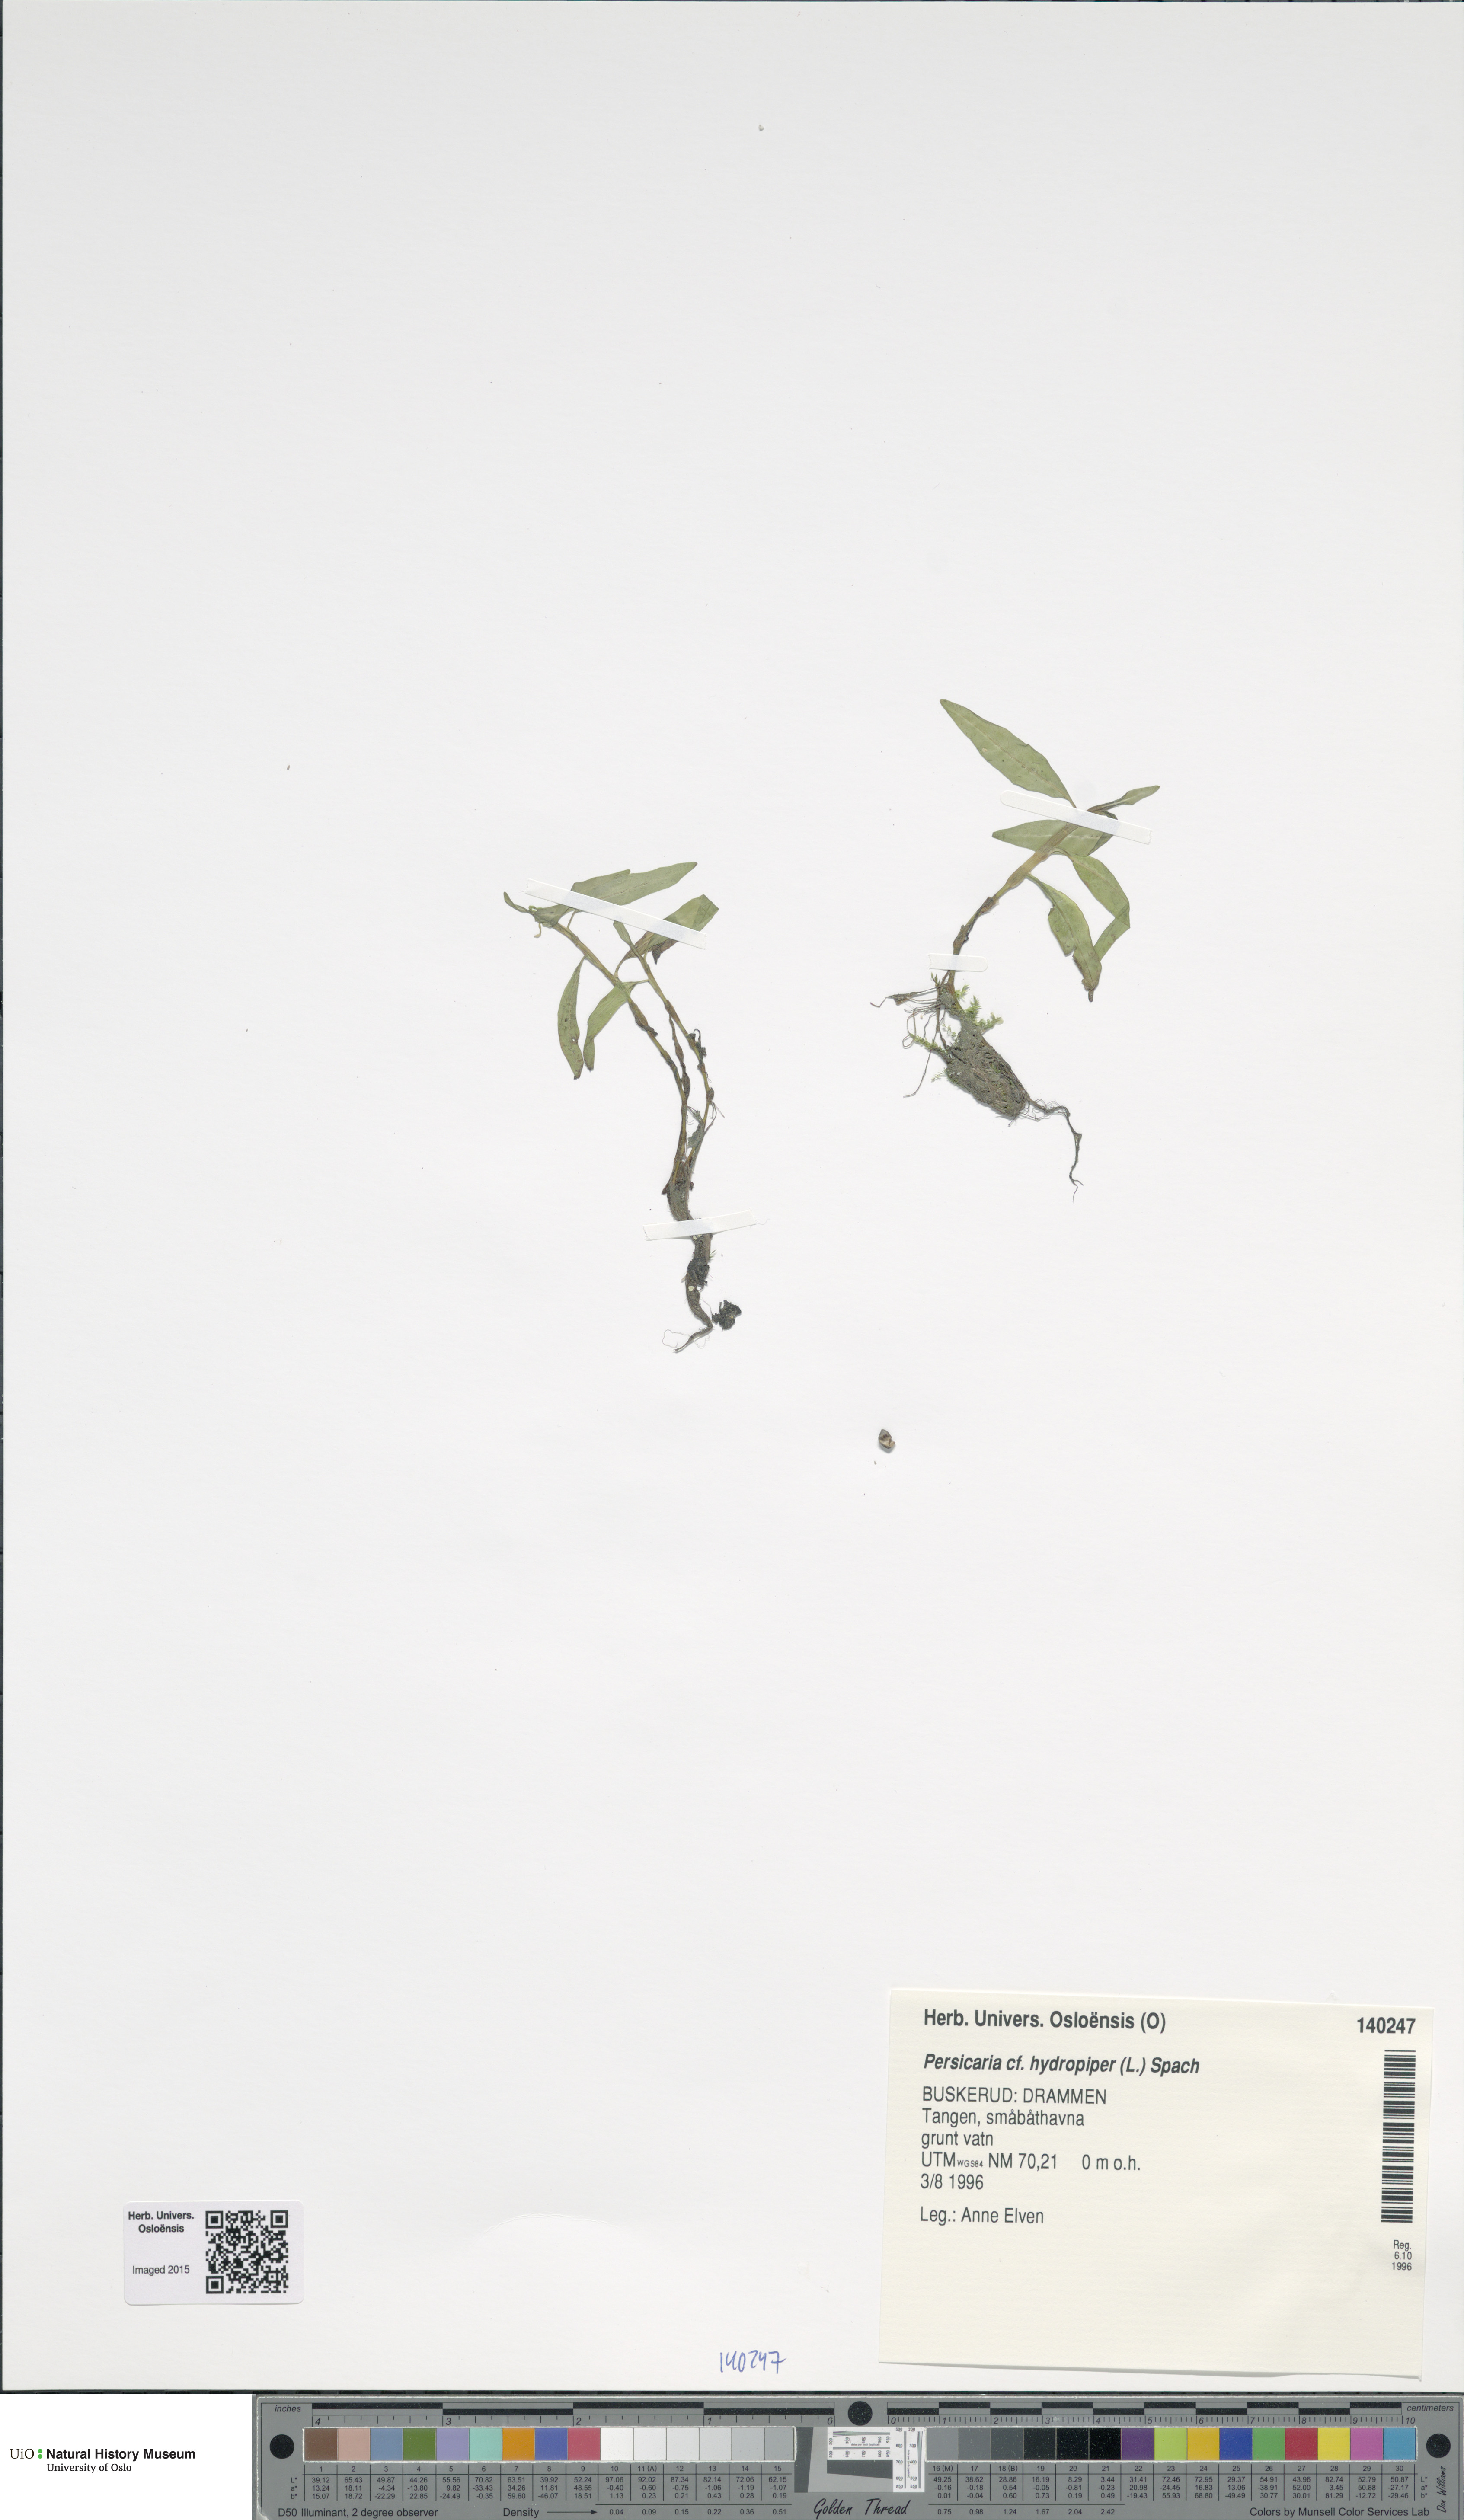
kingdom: Plantae
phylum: Tracheophyta
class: Magnoliopsida
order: Caryophyllales
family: Polygonaceae
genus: Persicaria
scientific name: Persicaria hydropiper
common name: Water-pepper
